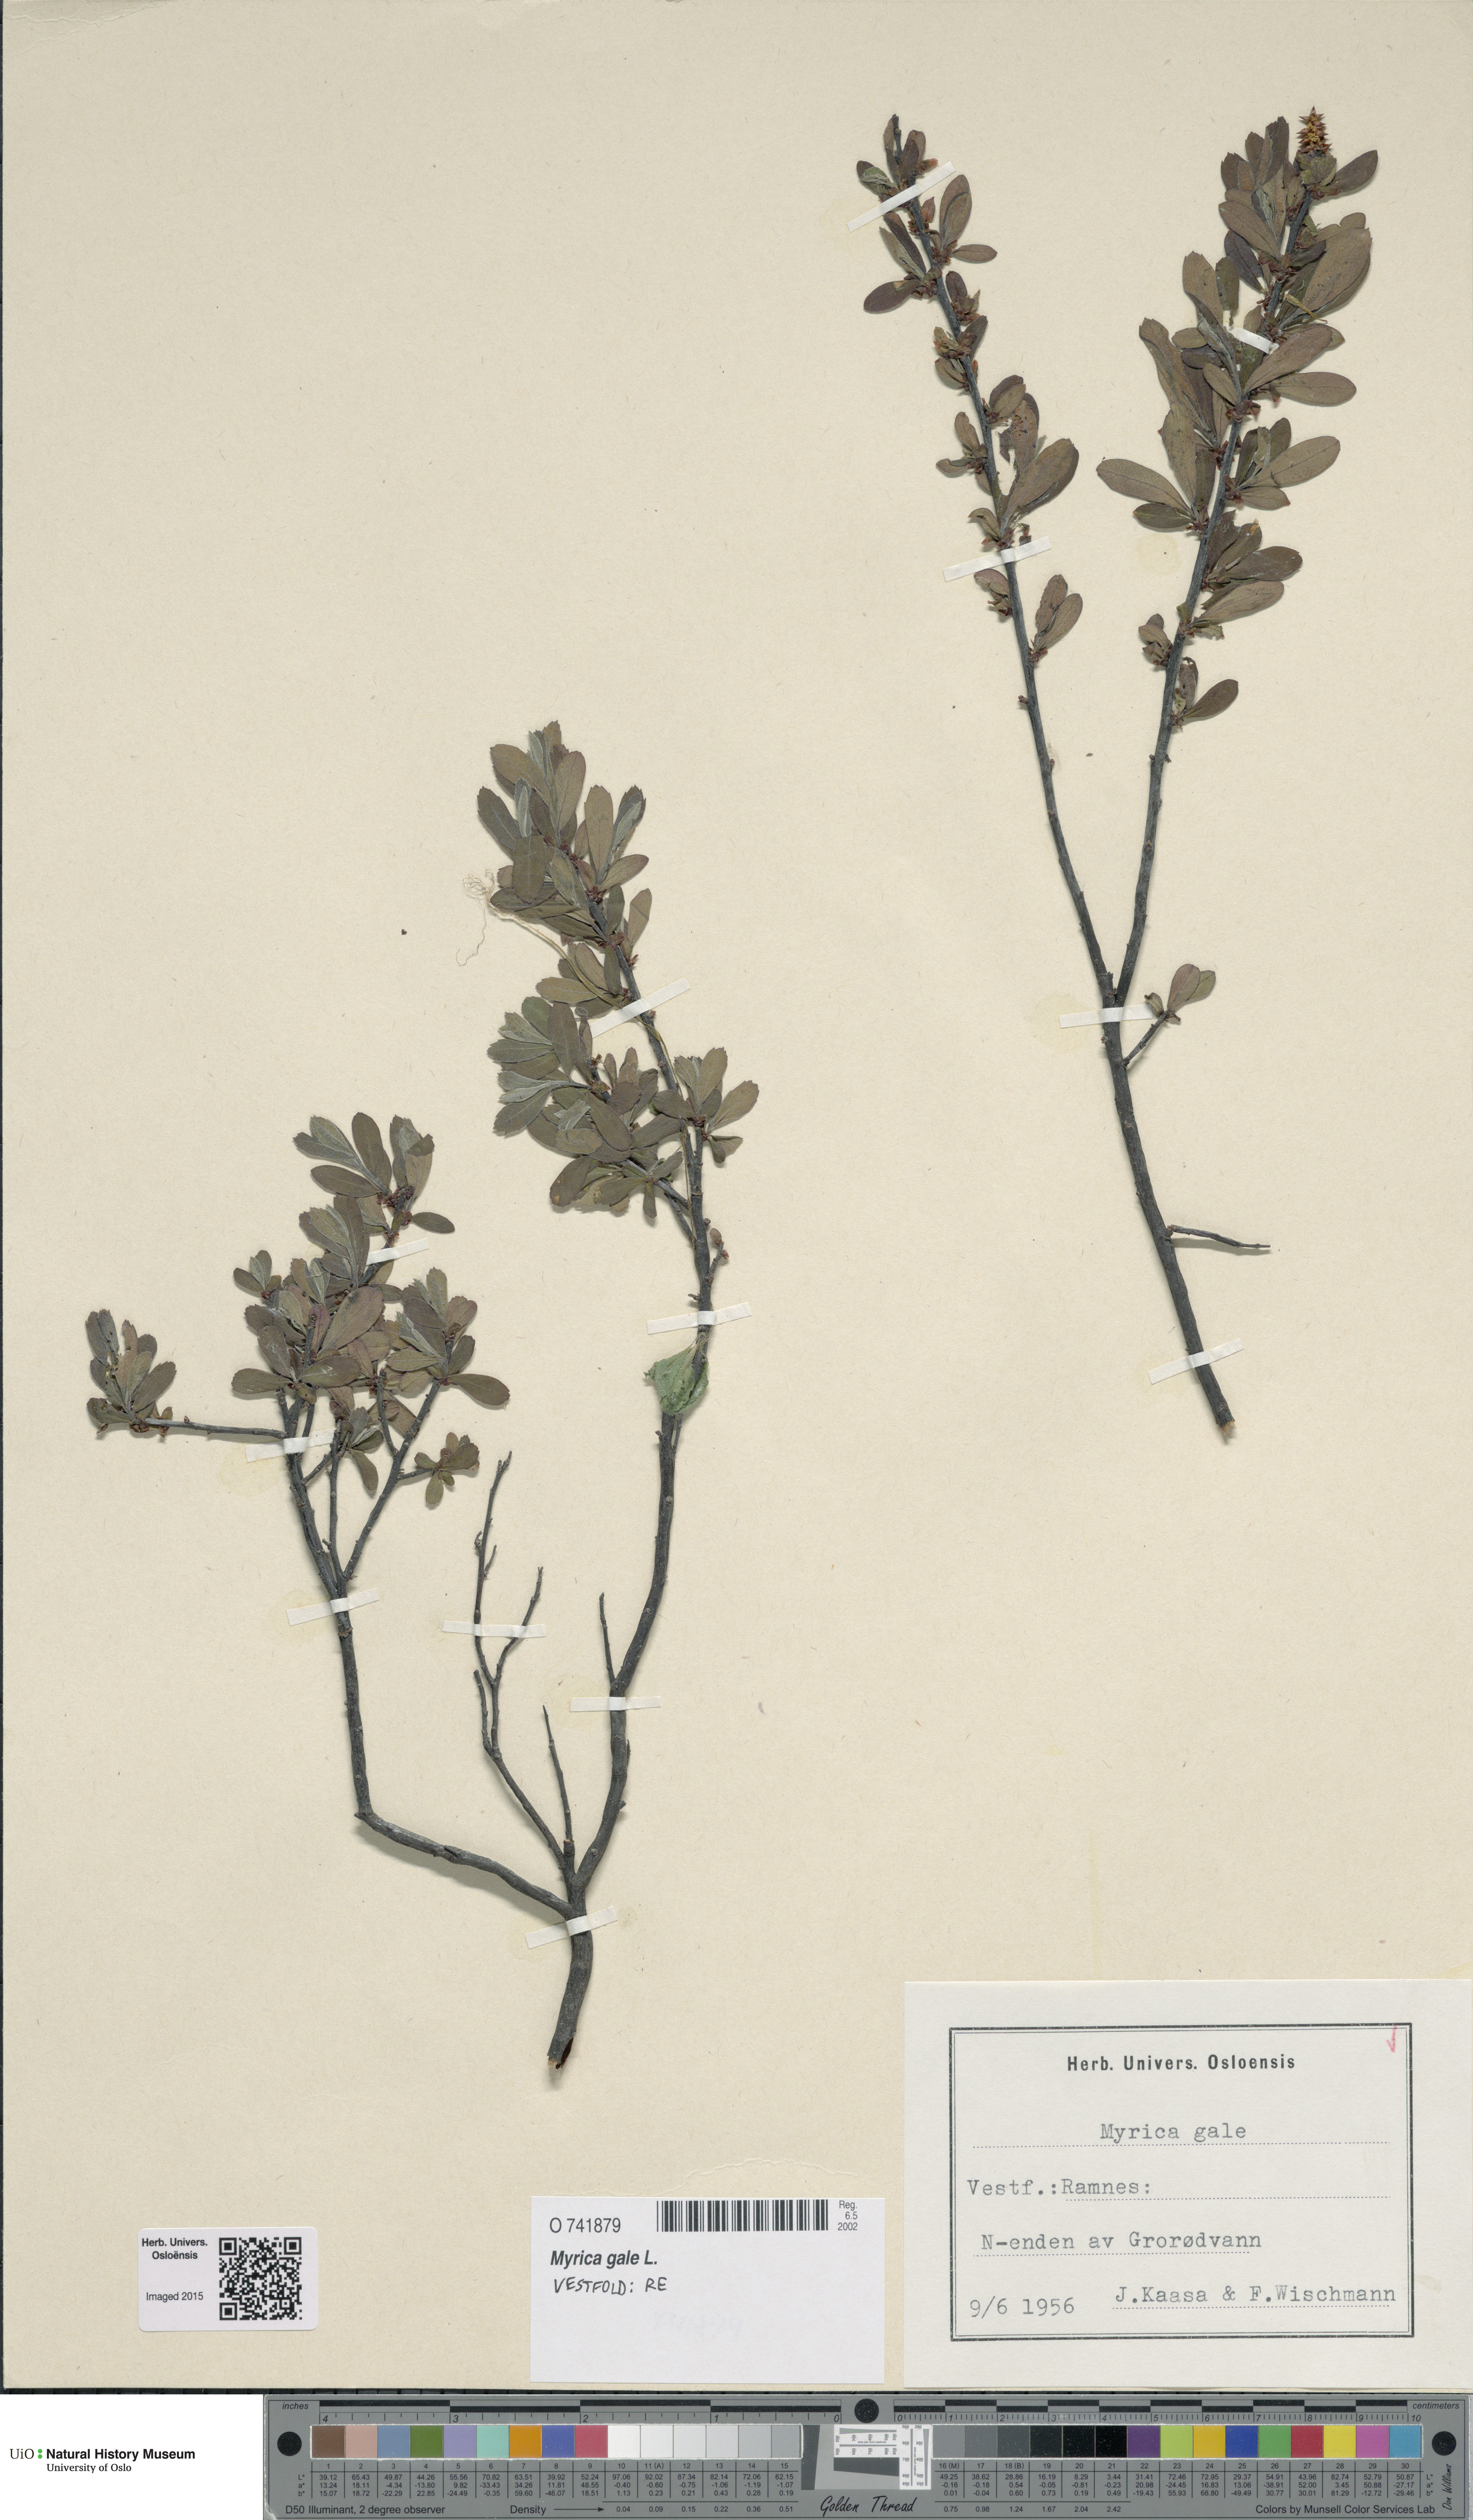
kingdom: Plantae
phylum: Tracheophyta
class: Magnoliopsida
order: Fagales
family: Myricaceae
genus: Myrica
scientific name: Myrica gale
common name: Sweet gale
